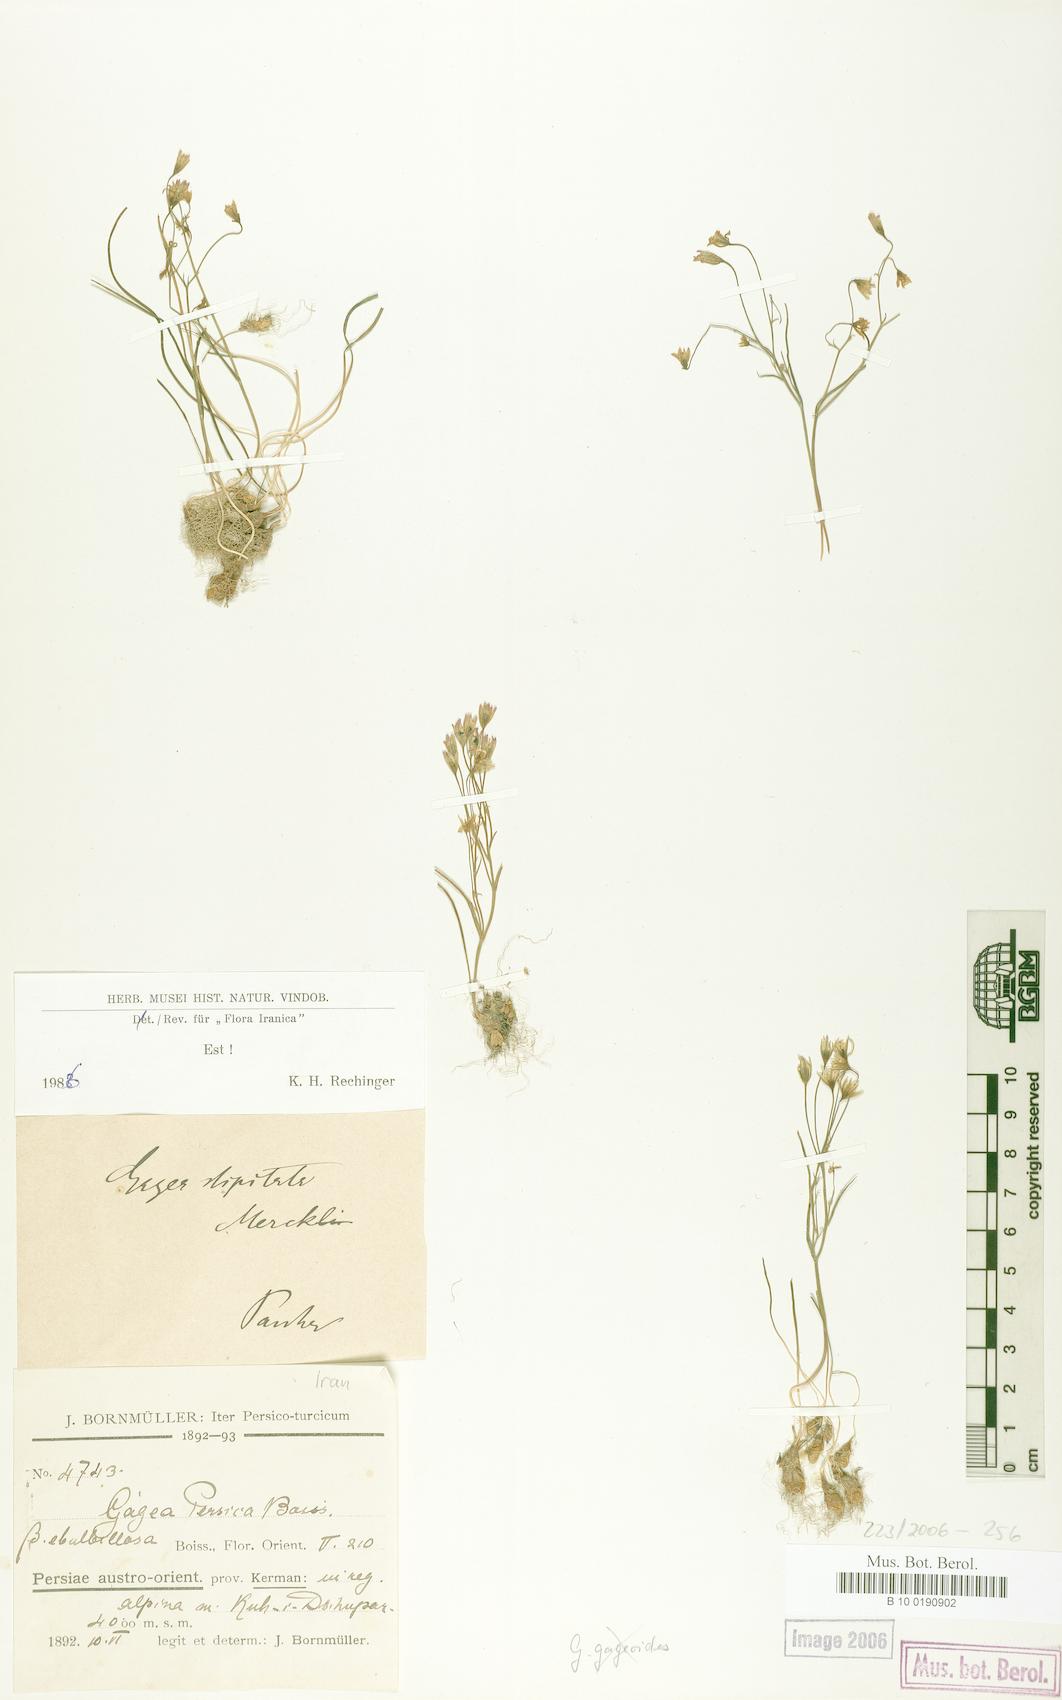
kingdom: Plantae
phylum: Tracheophyta
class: Liliopsida
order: Liliales
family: Liliaceae
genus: Gagea
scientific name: Gagea kunawurensis
